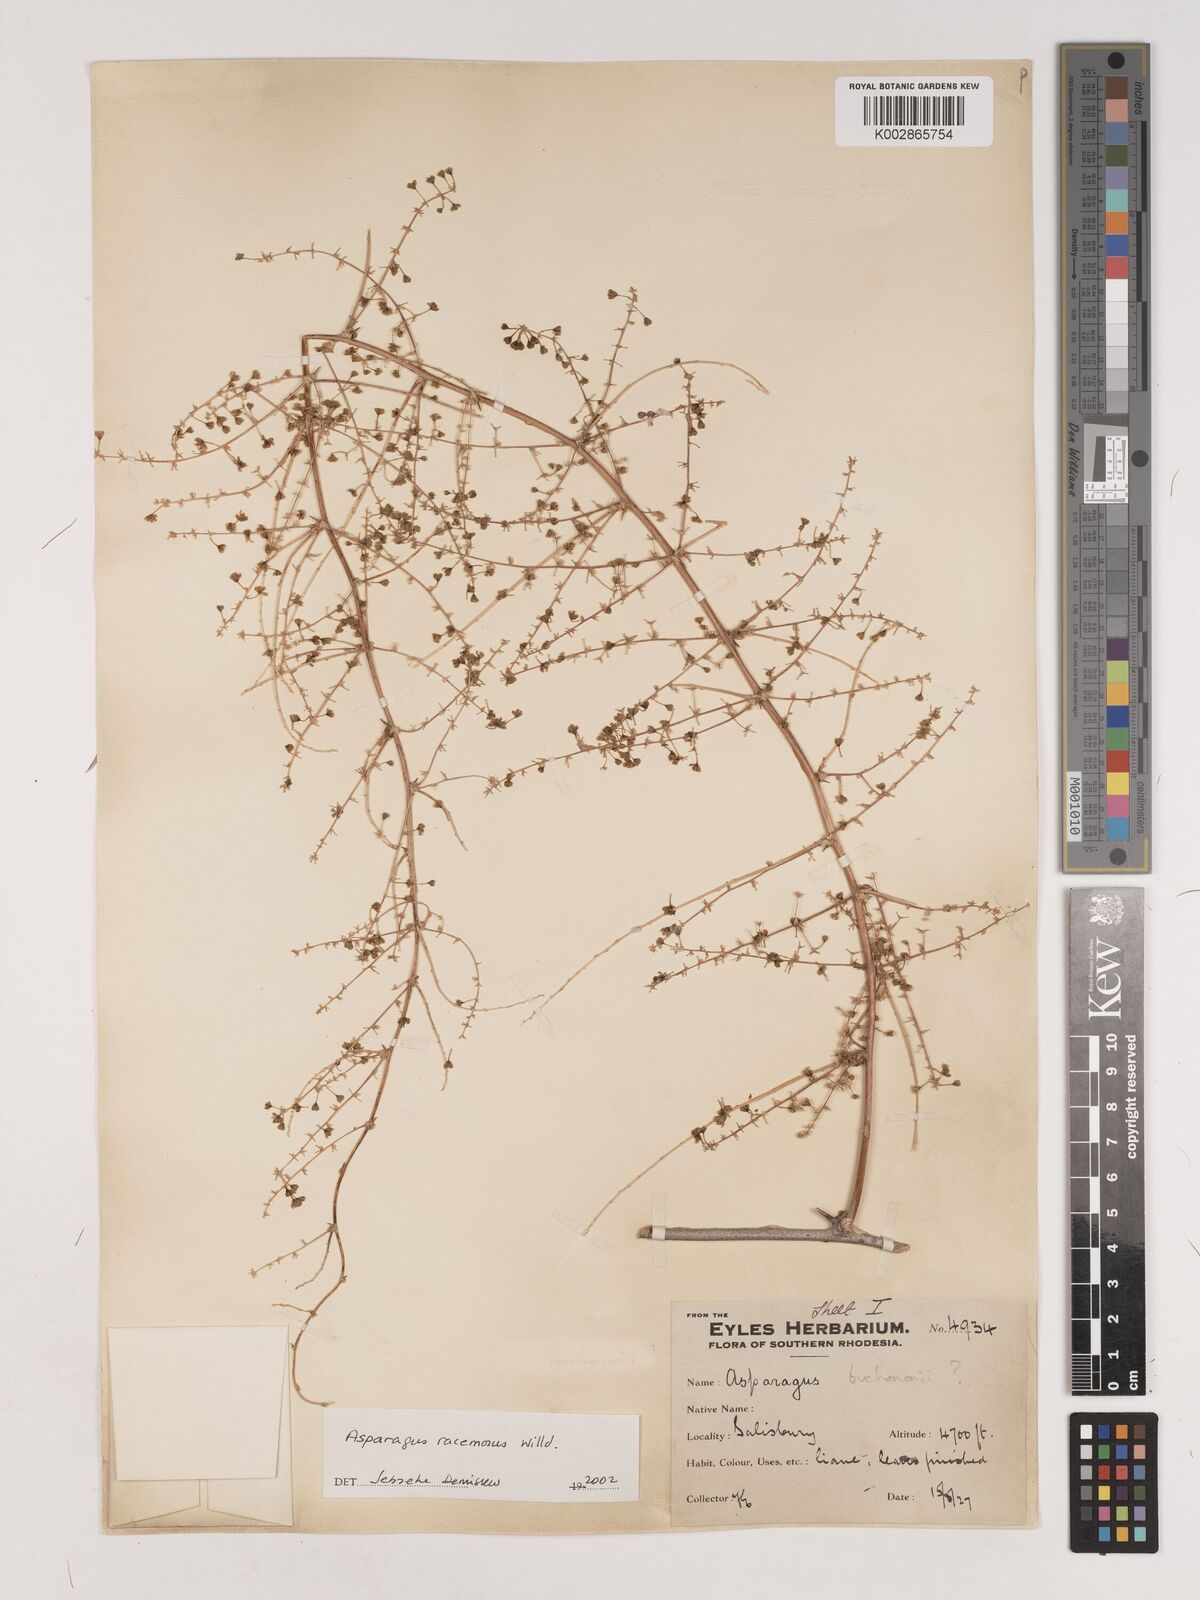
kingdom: Plantae
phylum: Tracheophyta
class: Liliopsida
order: Asparagales
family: Asparagaceae
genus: Asparagus
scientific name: Asparagus racemosus
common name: Asparagus-fern
